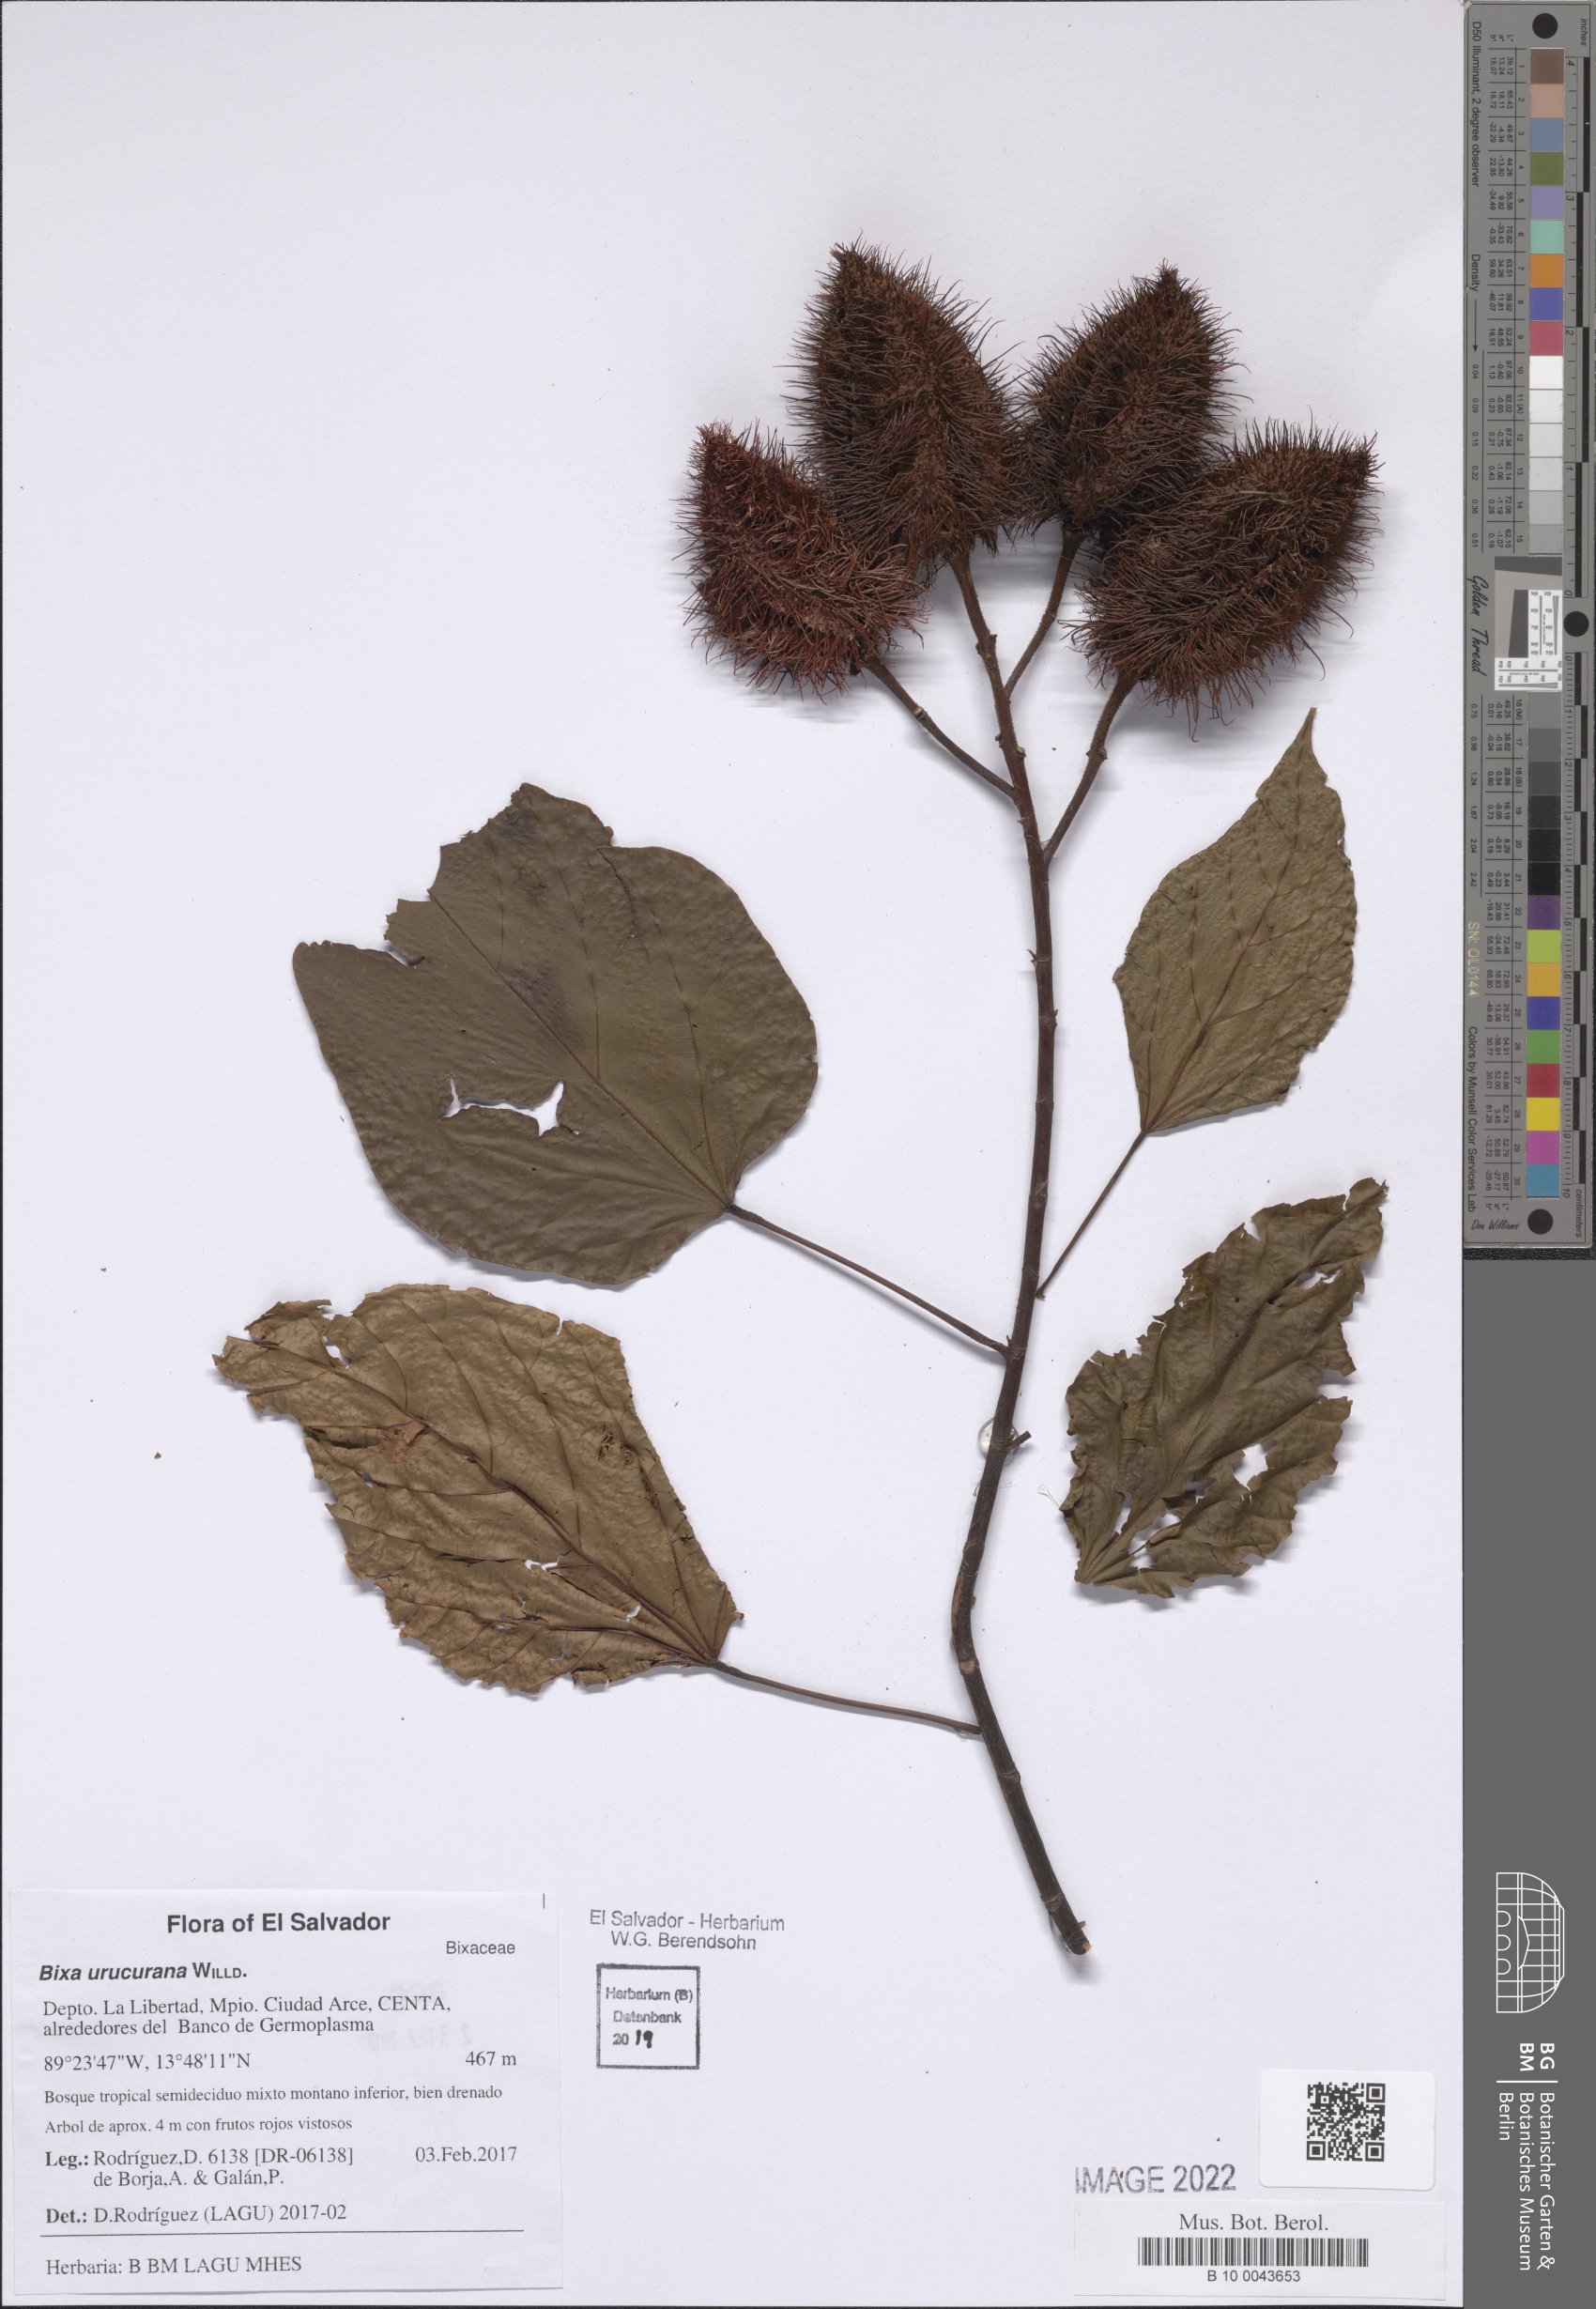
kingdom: Plantae
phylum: Tracheophyta
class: Magnoliopsida
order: Malvales
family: Bixaceae
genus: Bixa
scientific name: Bixa urucurana
